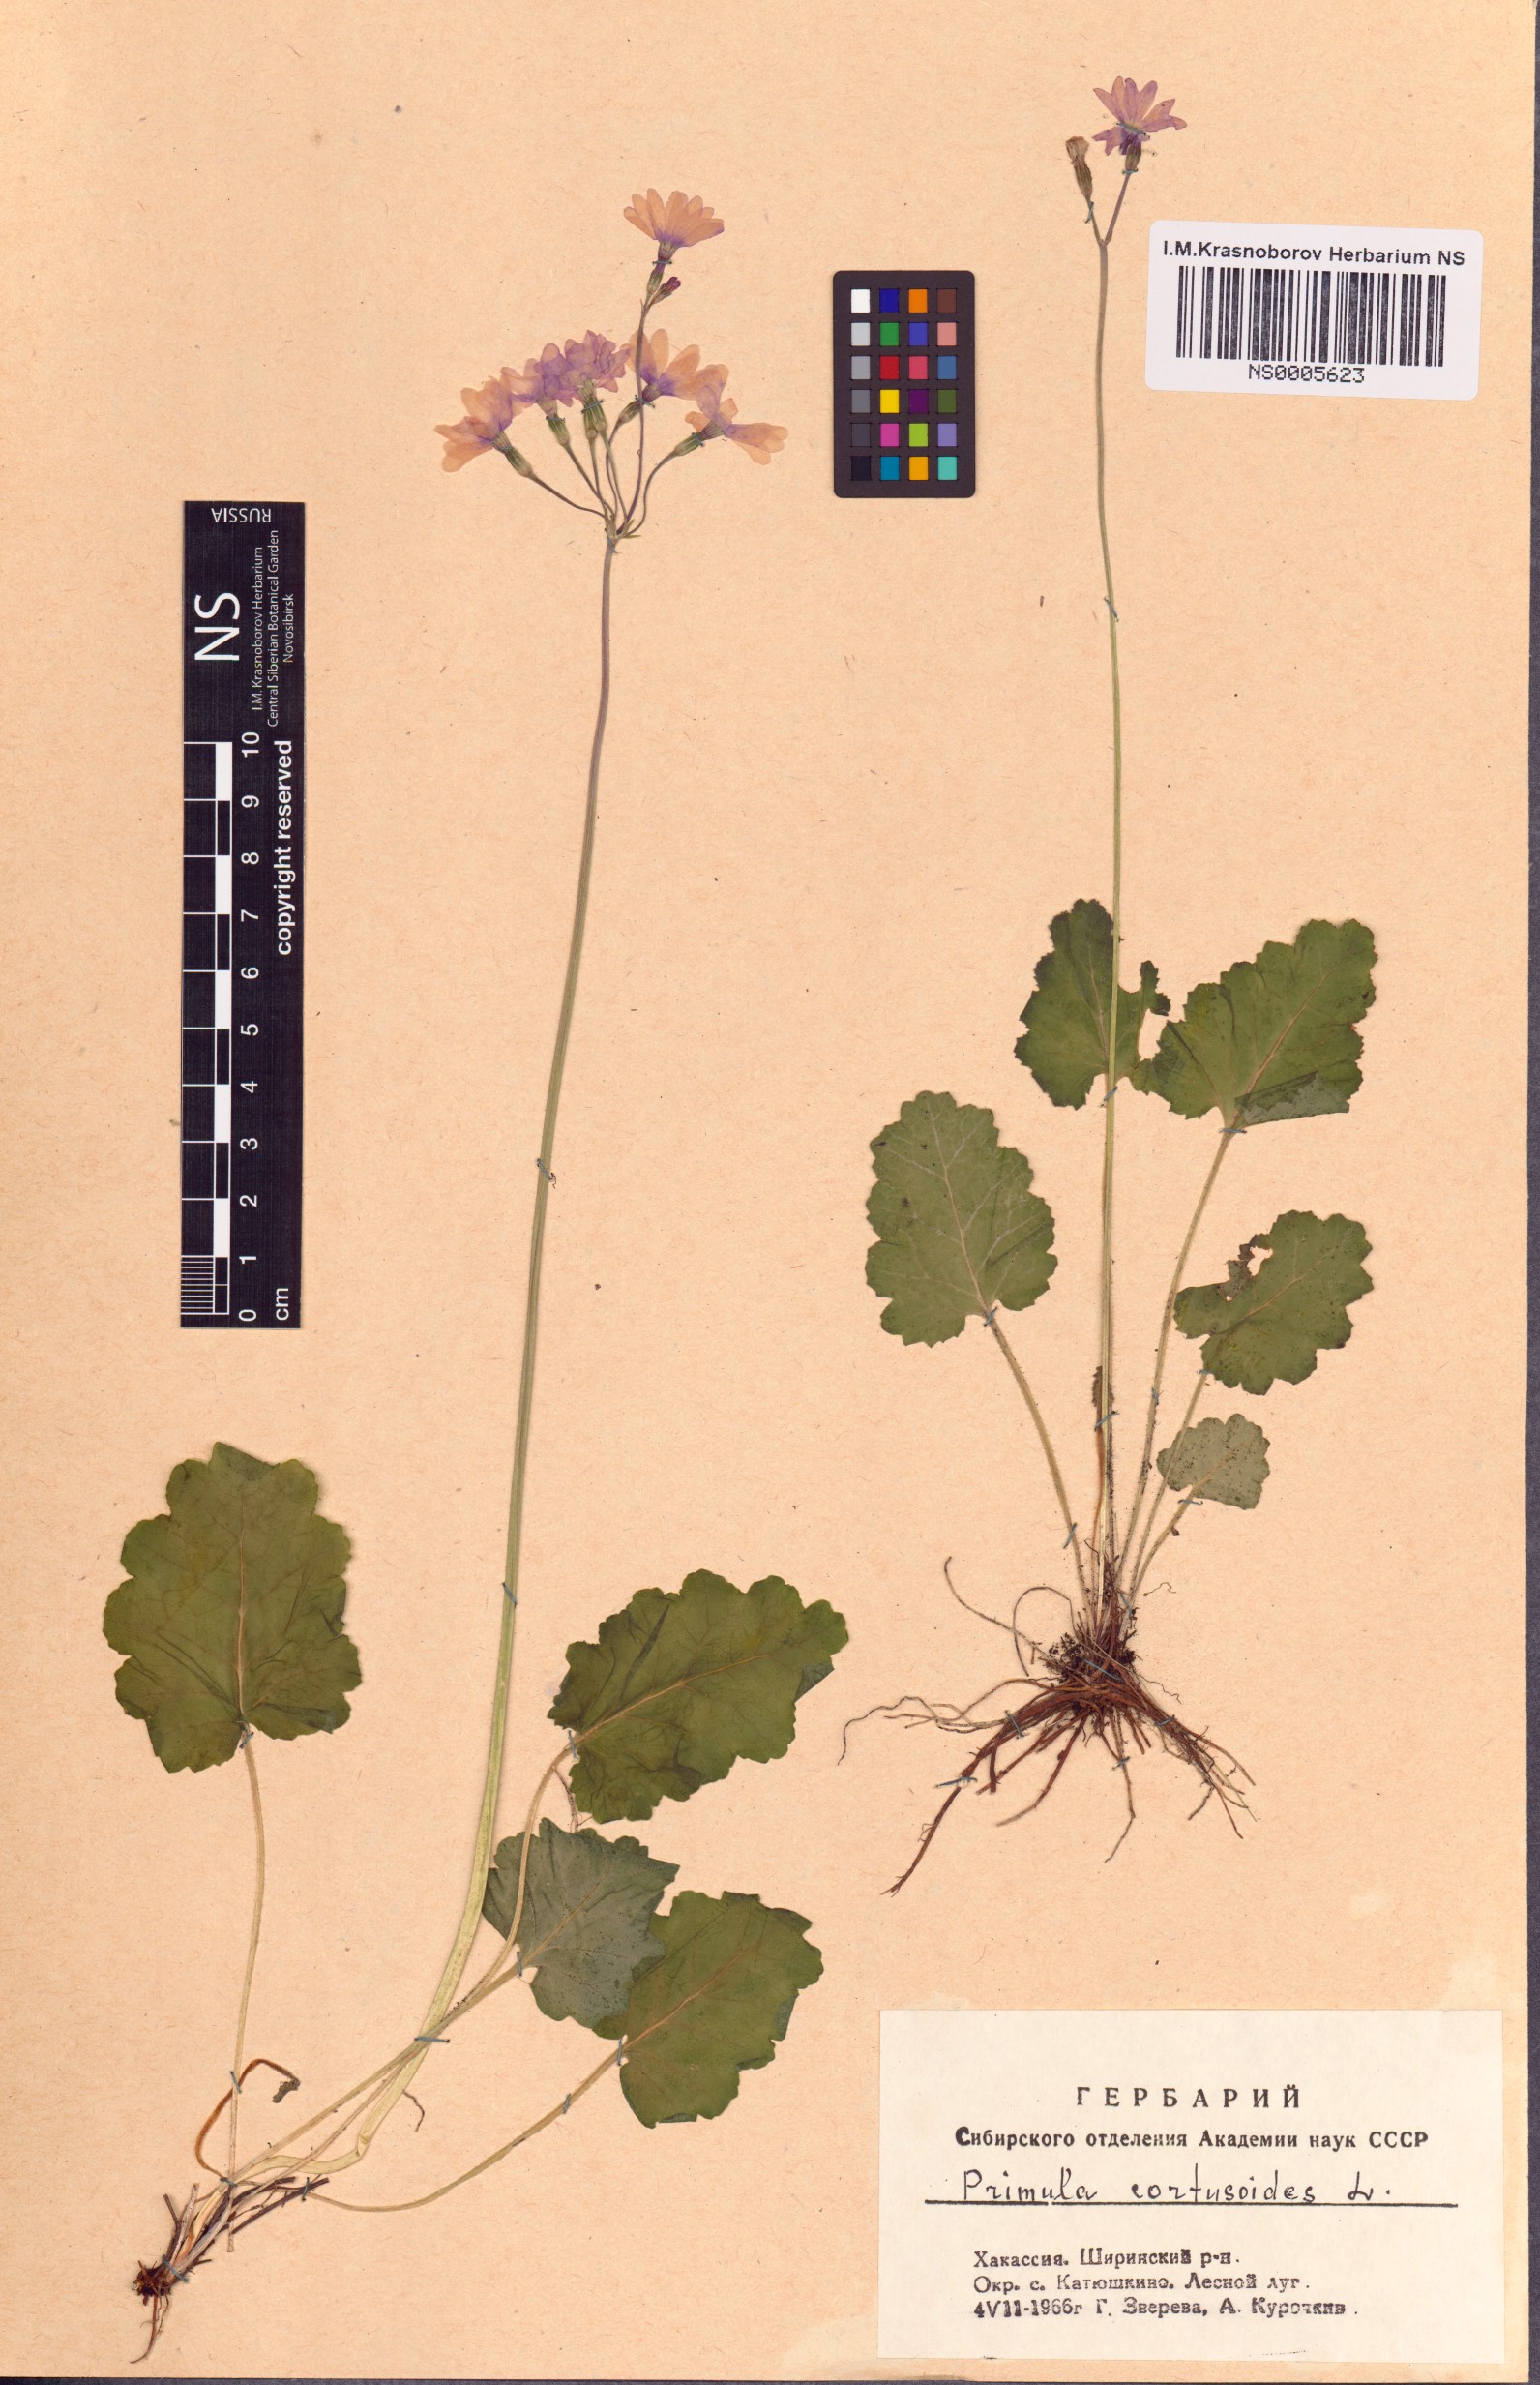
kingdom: Plantae
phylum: Tracheophyta
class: Magnoliopsida
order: Ericales
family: Primulaceae
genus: Primula
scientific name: Primula cortusoides
